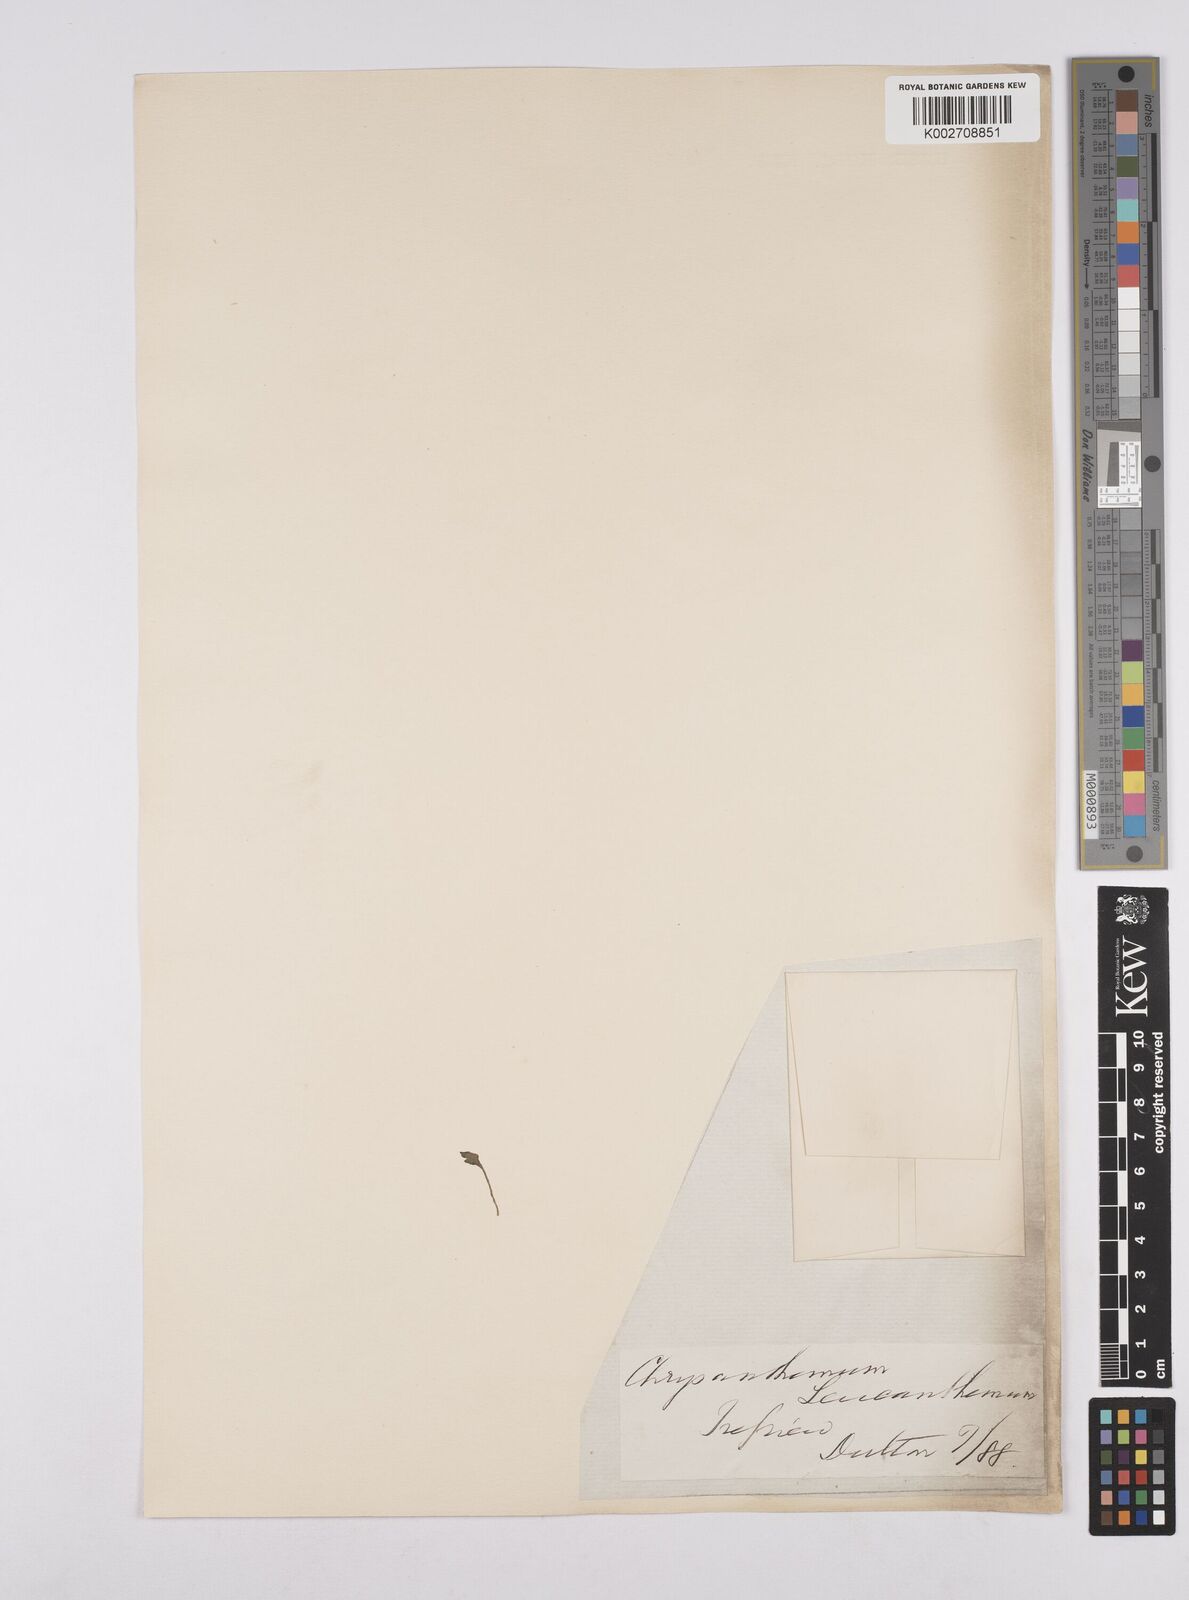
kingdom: Plantae
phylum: Tracheophyta
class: Magnoliopsida
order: Asterales
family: Asteraceae
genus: Leucanthemum
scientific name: Leucanthemum
